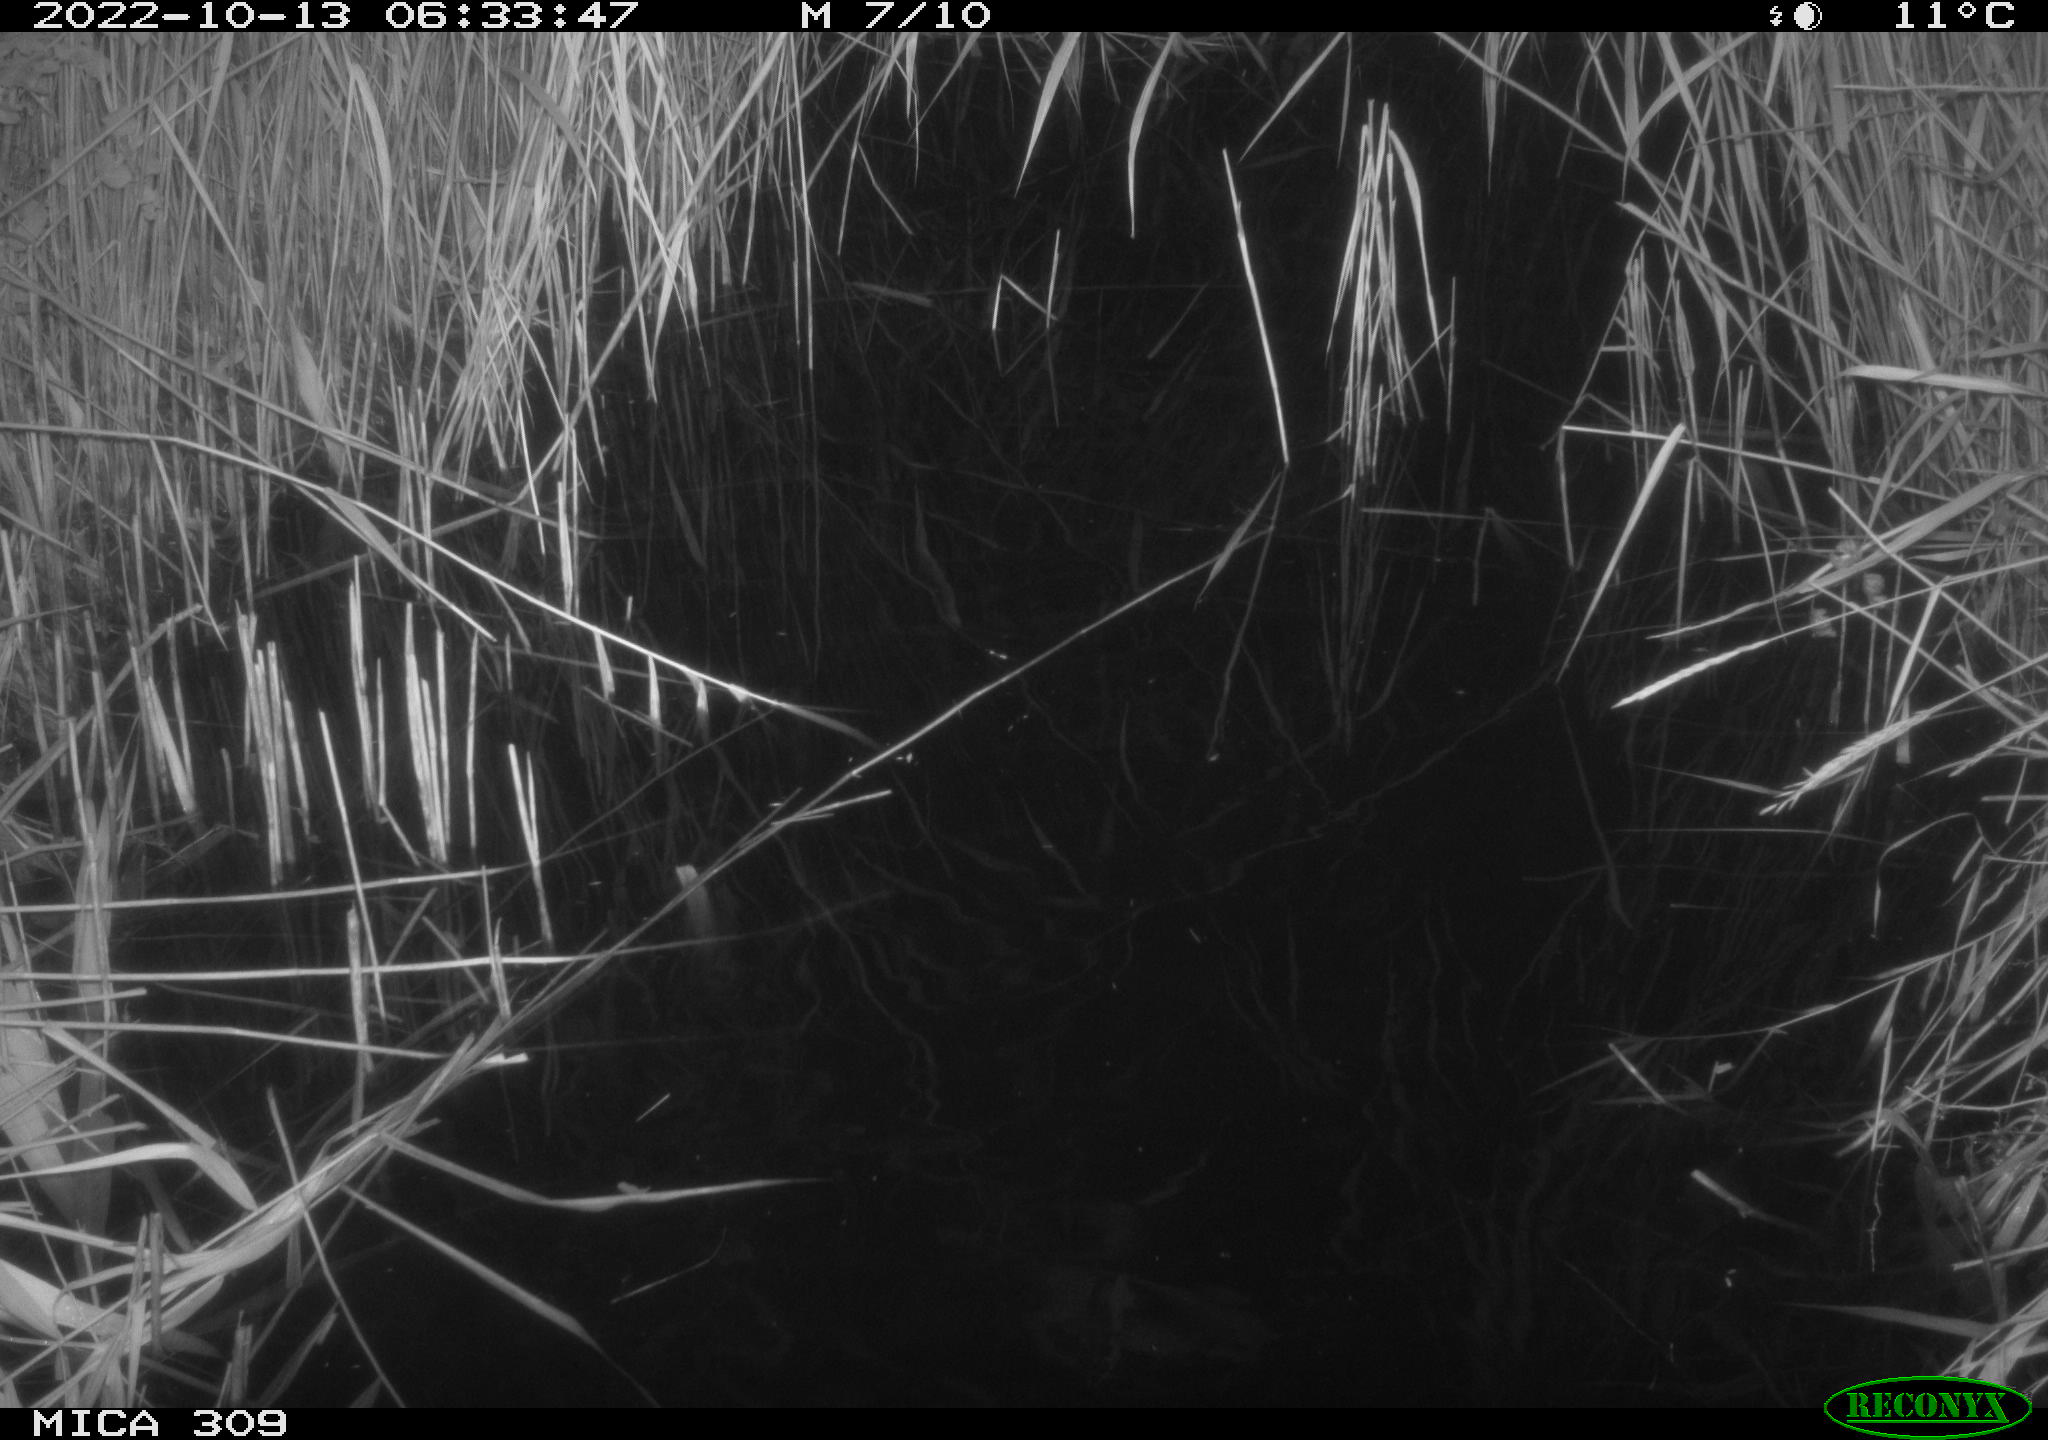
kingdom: Animalia
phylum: Chordata
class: Mammalia
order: Rodentia
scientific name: Rodentia
